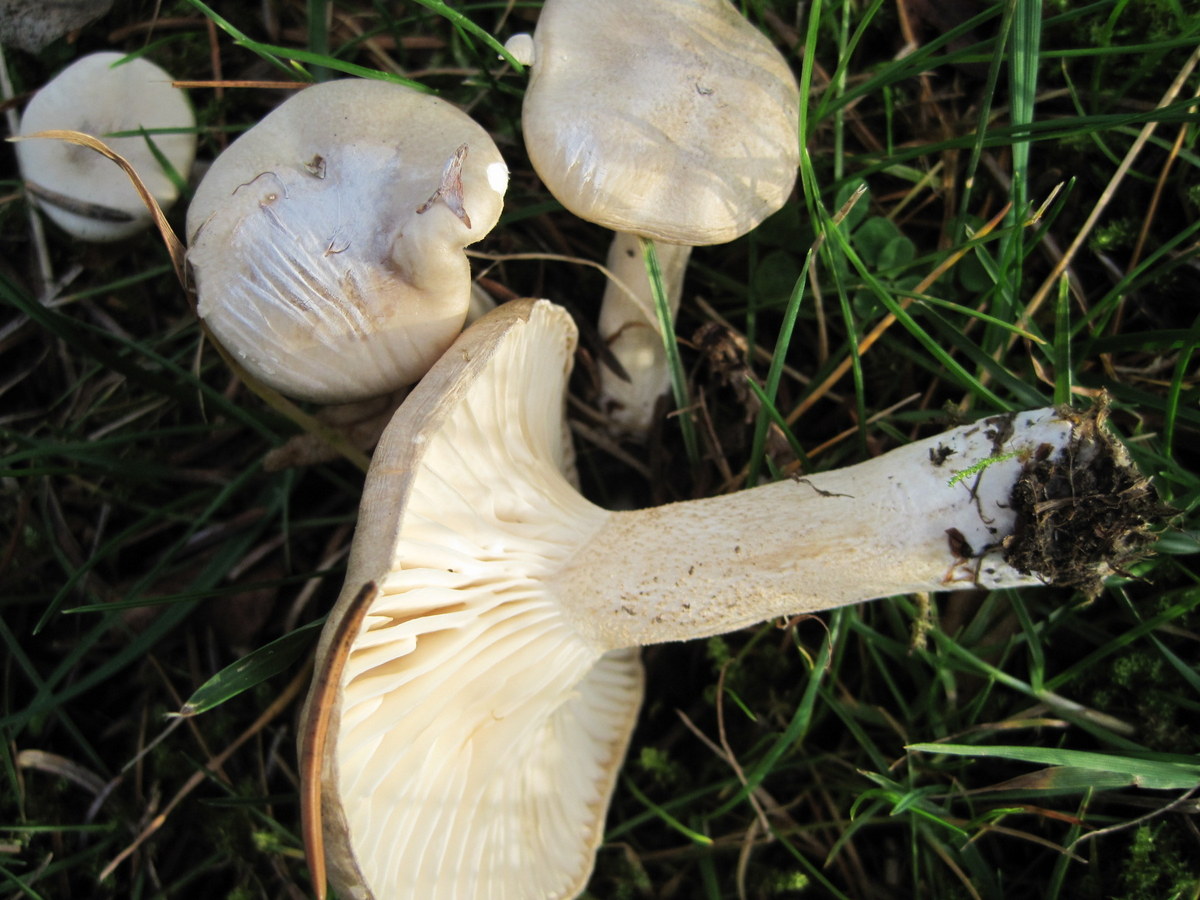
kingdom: Fungi
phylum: Basidiomycota
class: Agaricomycetes
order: Agaricales
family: Hygrophoraceae
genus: Hygrophorus
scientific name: Hygrophorus agathosmus
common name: vellugtende sneglehat
